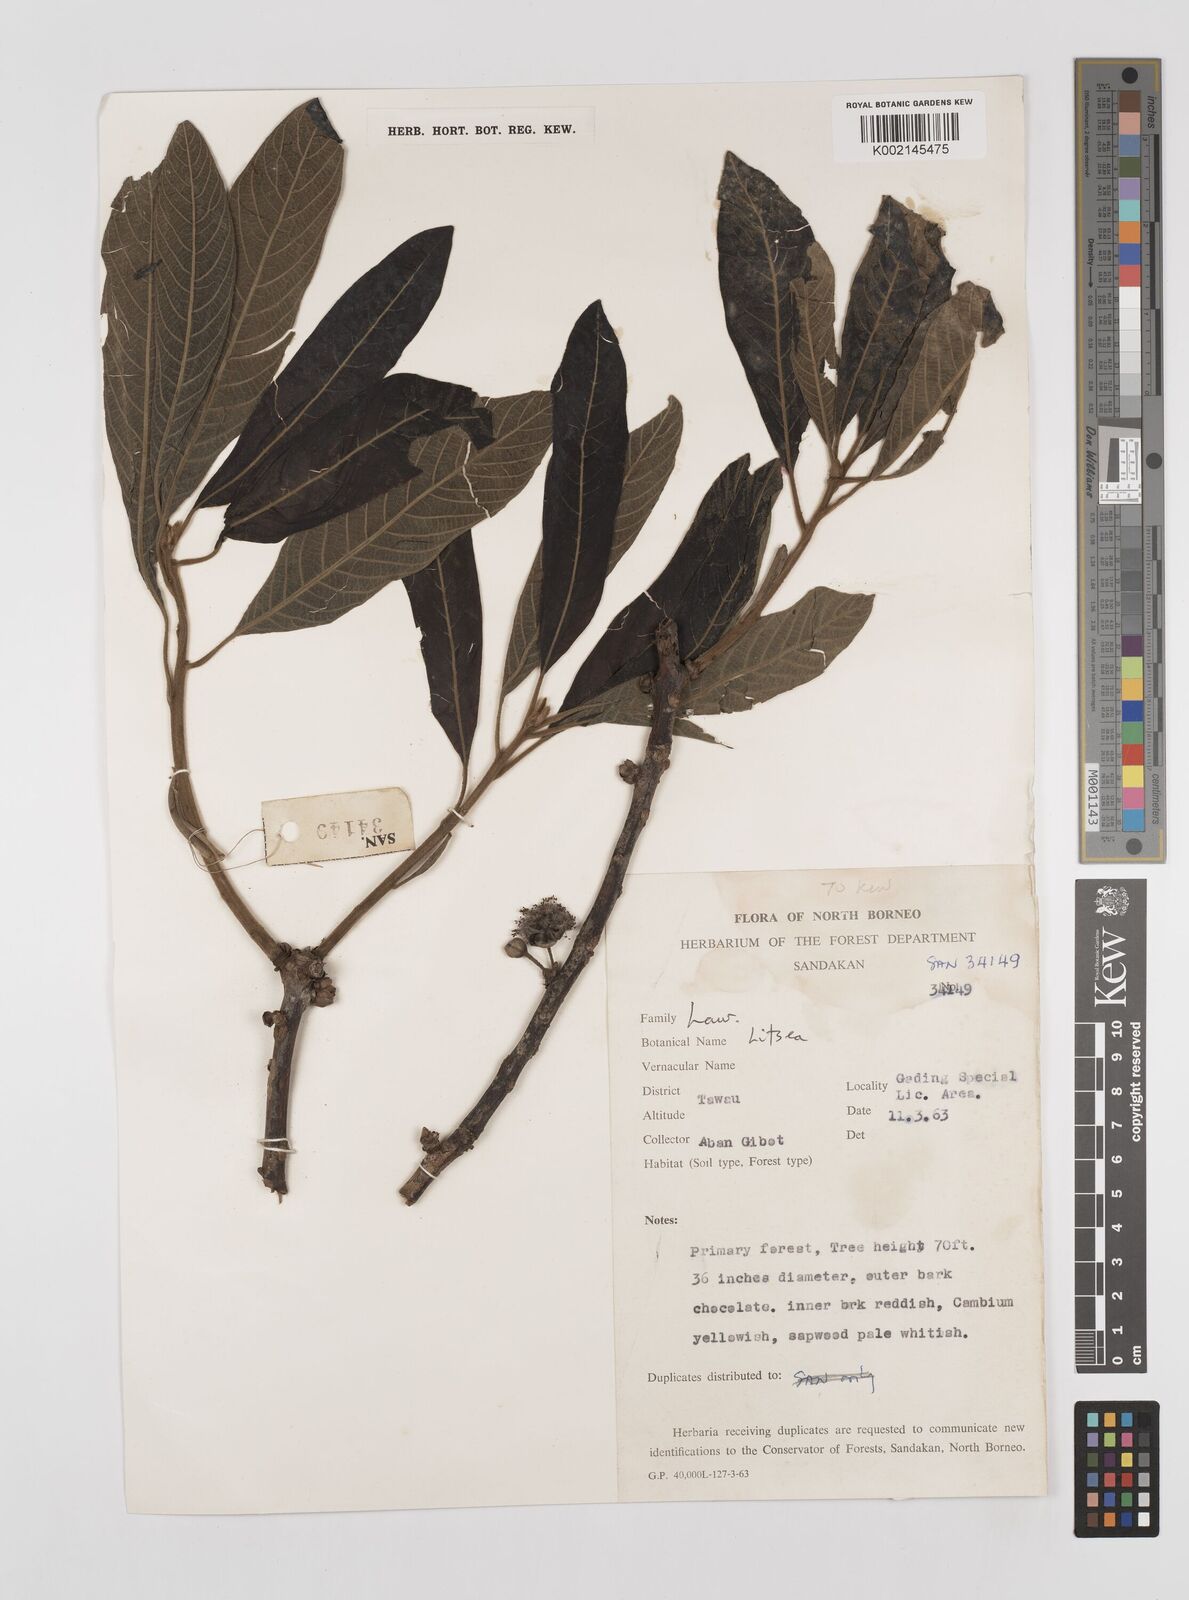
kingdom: Plantae
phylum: Tracheophyta
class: Magnoliopsida
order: Laurales
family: Lauraceae
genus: Litsea
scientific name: Litsea
